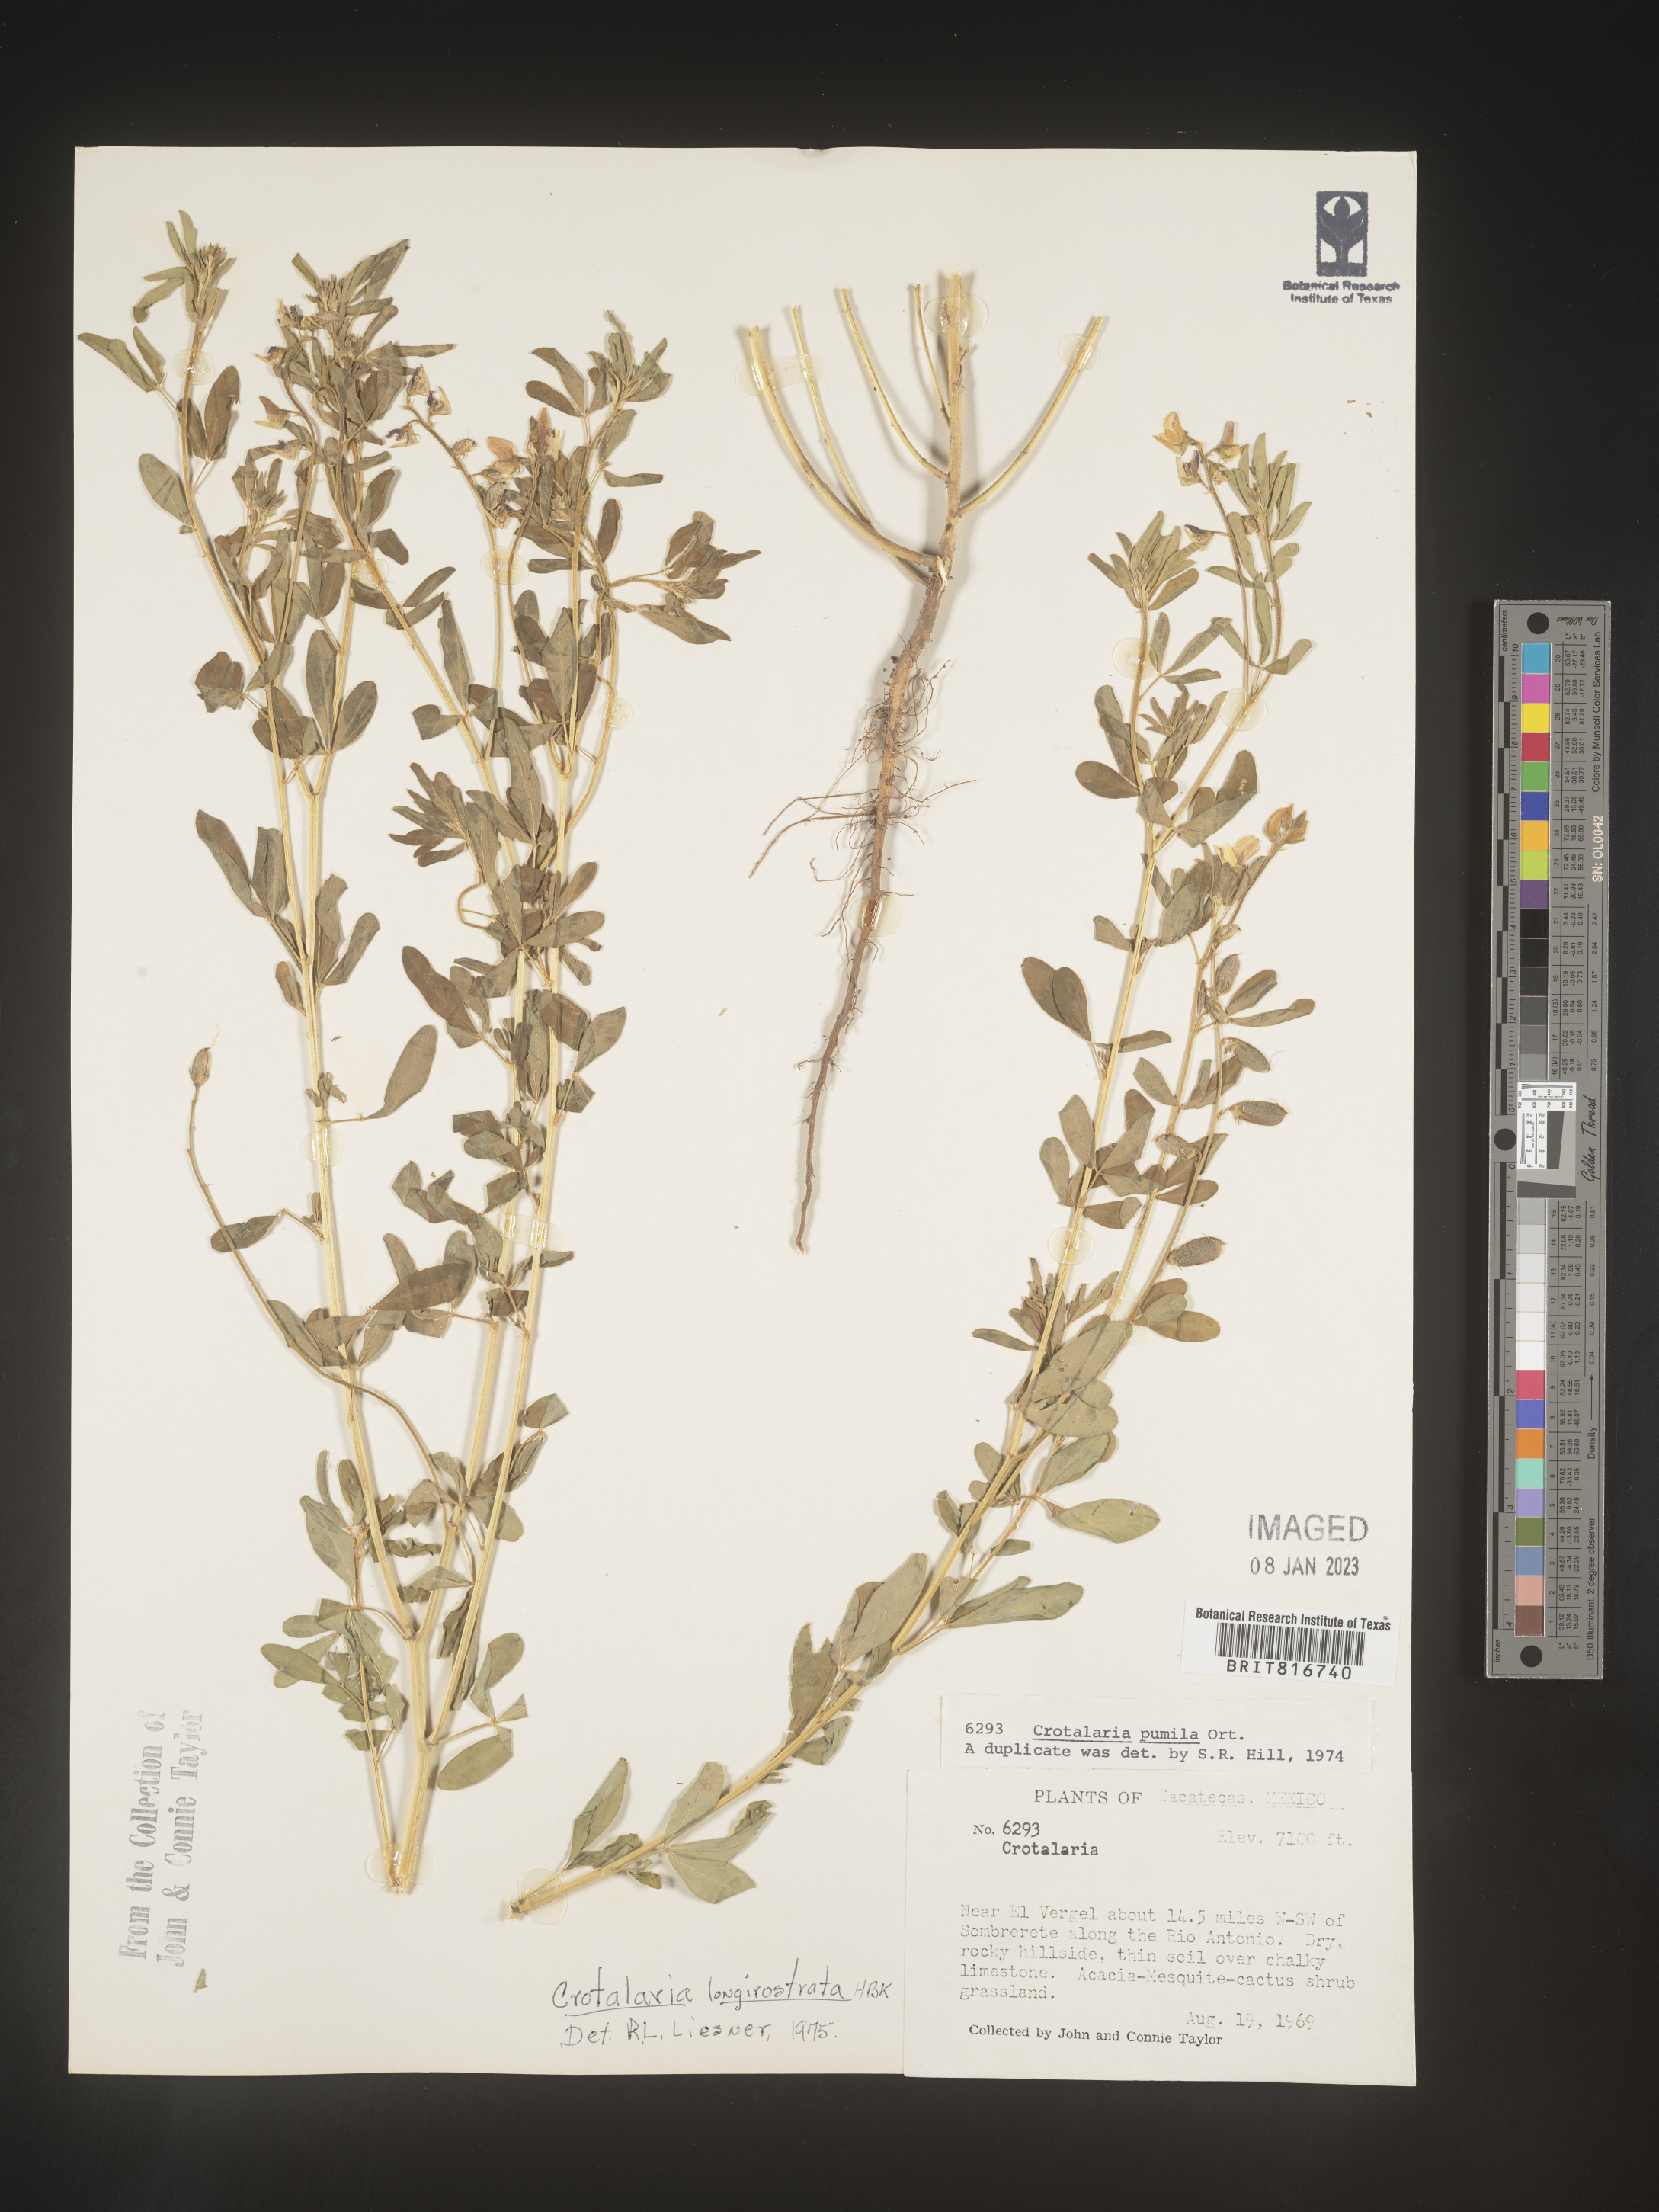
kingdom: Plantae
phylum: Tracheophyta
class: Magnoliopsida
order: Fabales
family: Fabaceae
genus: Crotalaria
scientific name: Crotalaria
